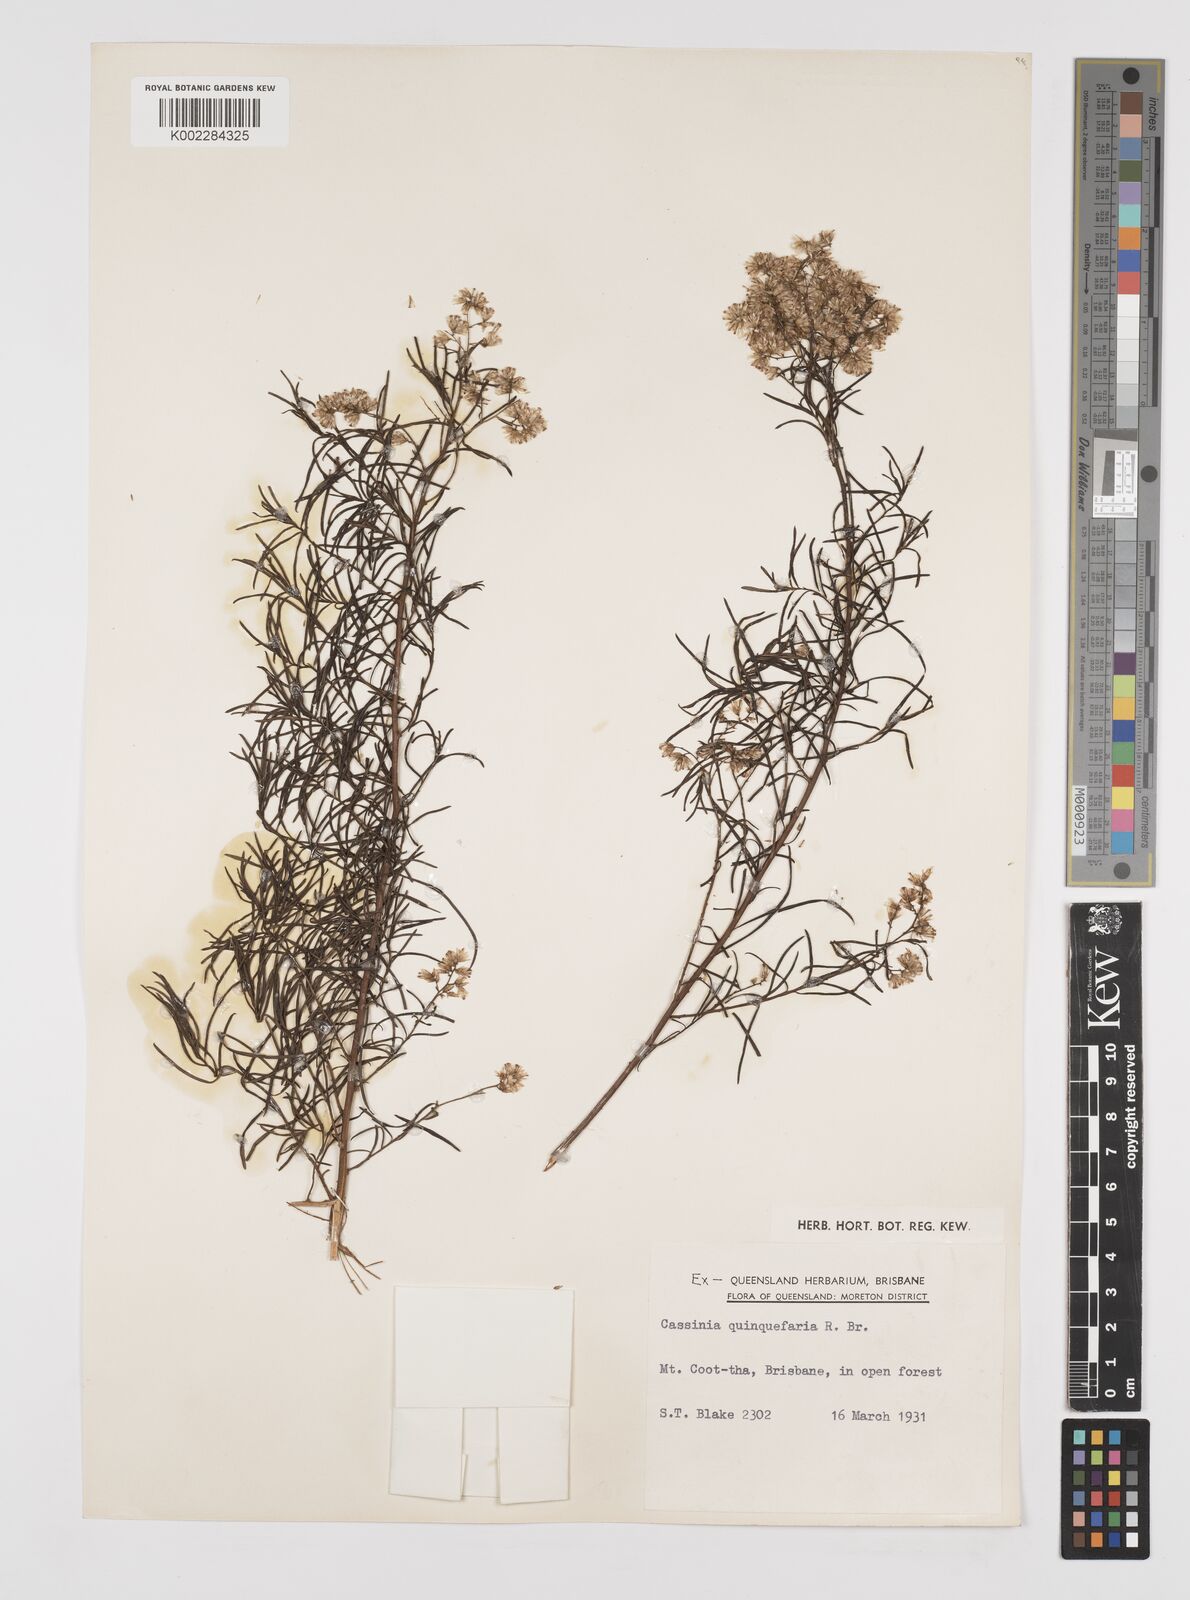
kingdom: Plantae
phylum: Tracheophyta
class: Magnoliopsida
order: Asterales
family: Asteraceae
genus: Cassinia
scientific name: Cassinia quinquefaria
